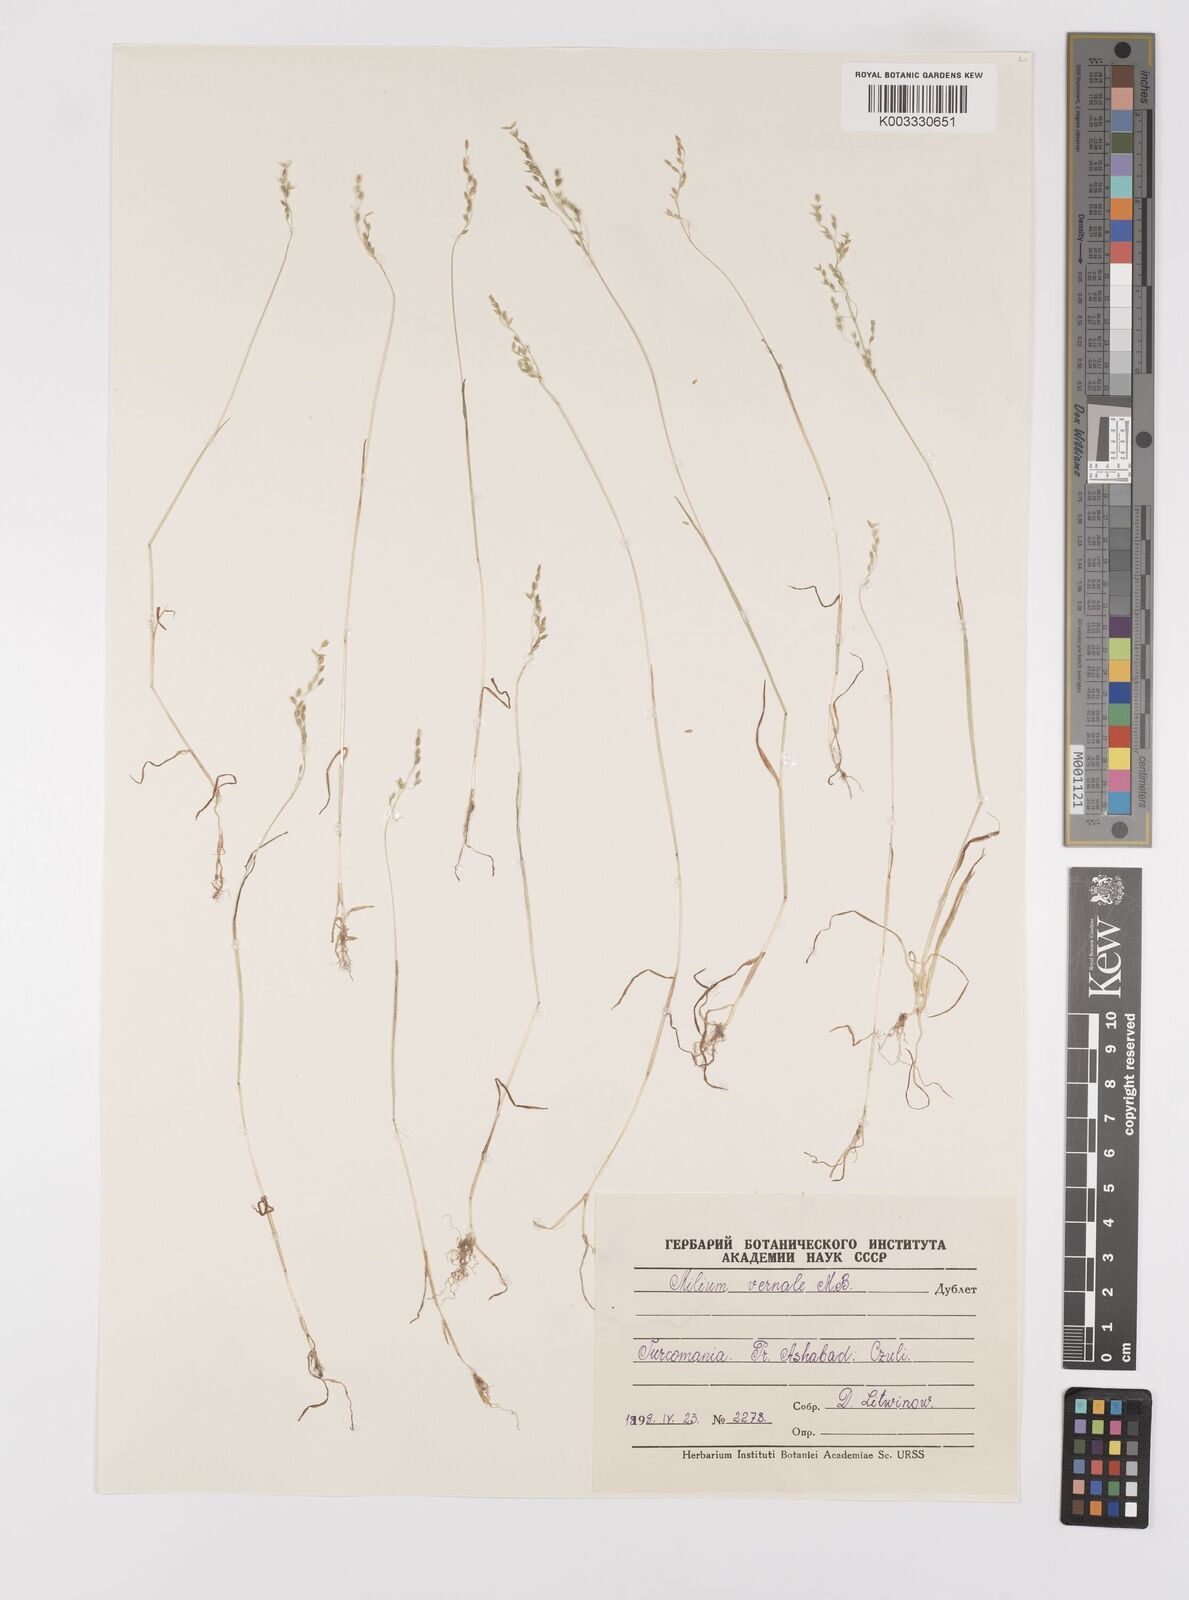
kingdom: Plantae
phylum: Tracheophyta
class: Liliopsida
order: Poales
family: Poaceae
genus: Milium
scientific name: Milium vernale
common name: Early millet
